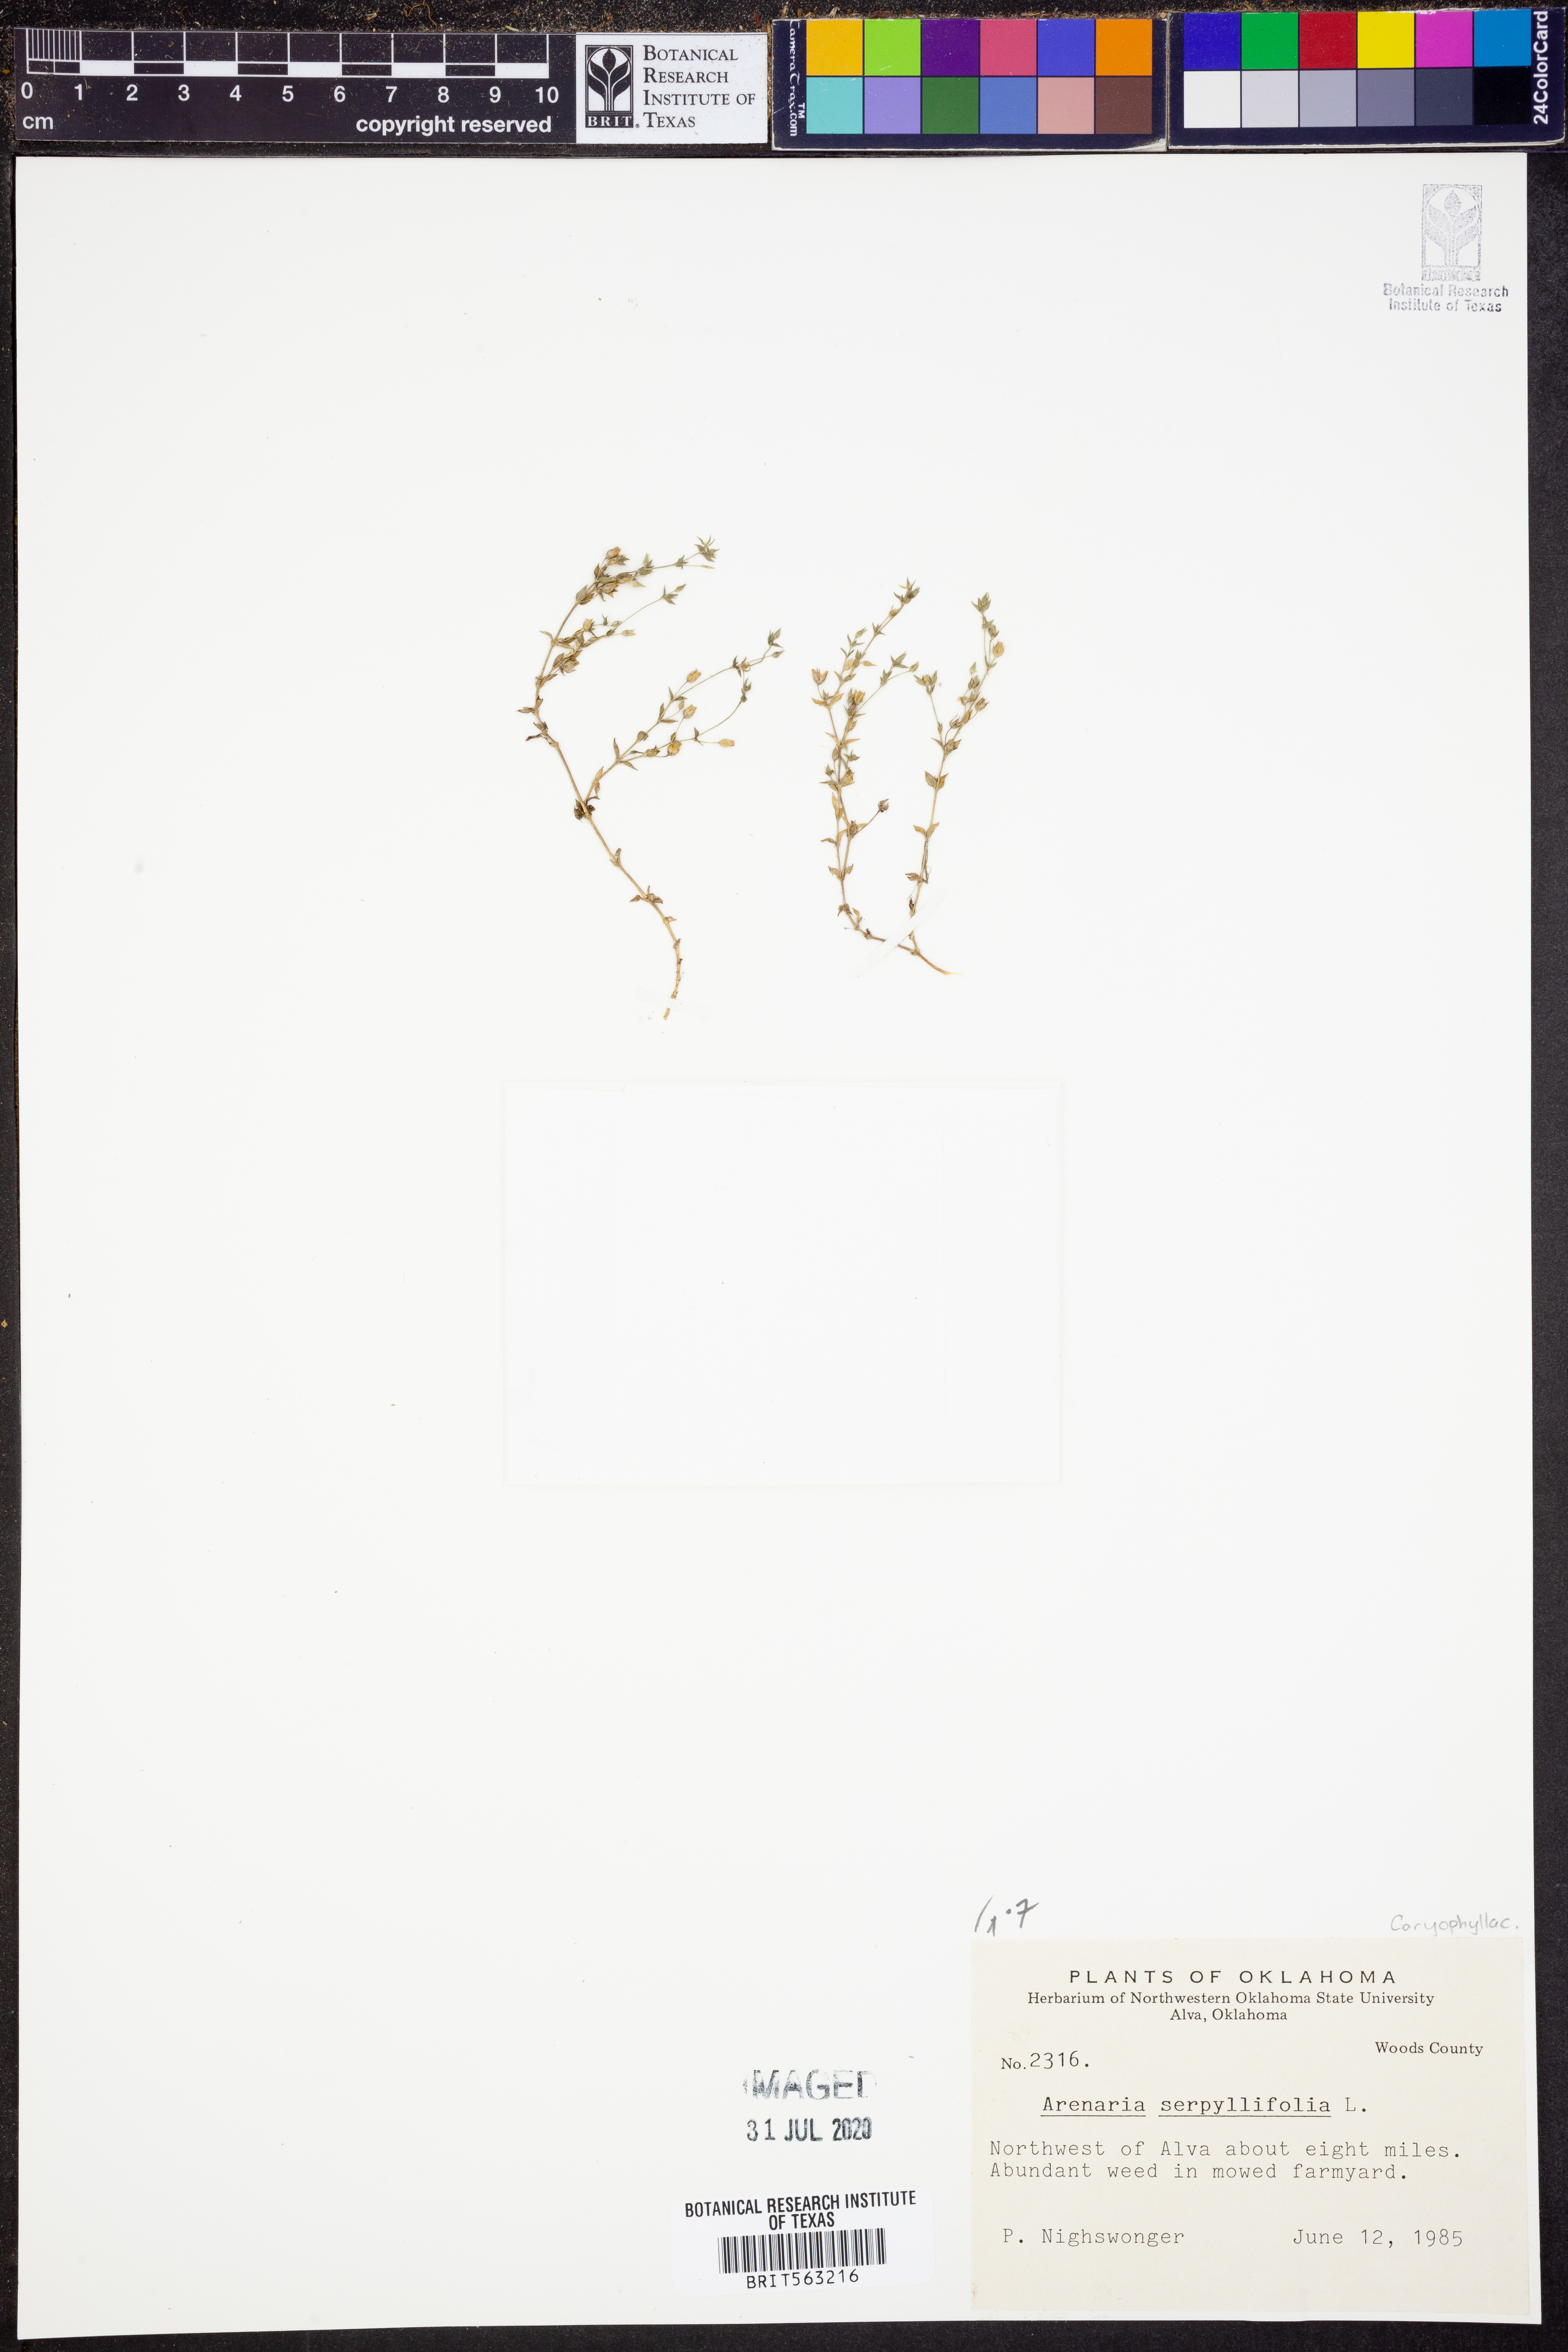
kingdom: Plantae
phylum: Tracheophyta
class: Magnoliopsida
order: Caryophyllales
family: Caryophyllaceae
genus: Arenaria
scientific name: Arenaria serpyllifolia
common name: Thyme-leaved sandwort
